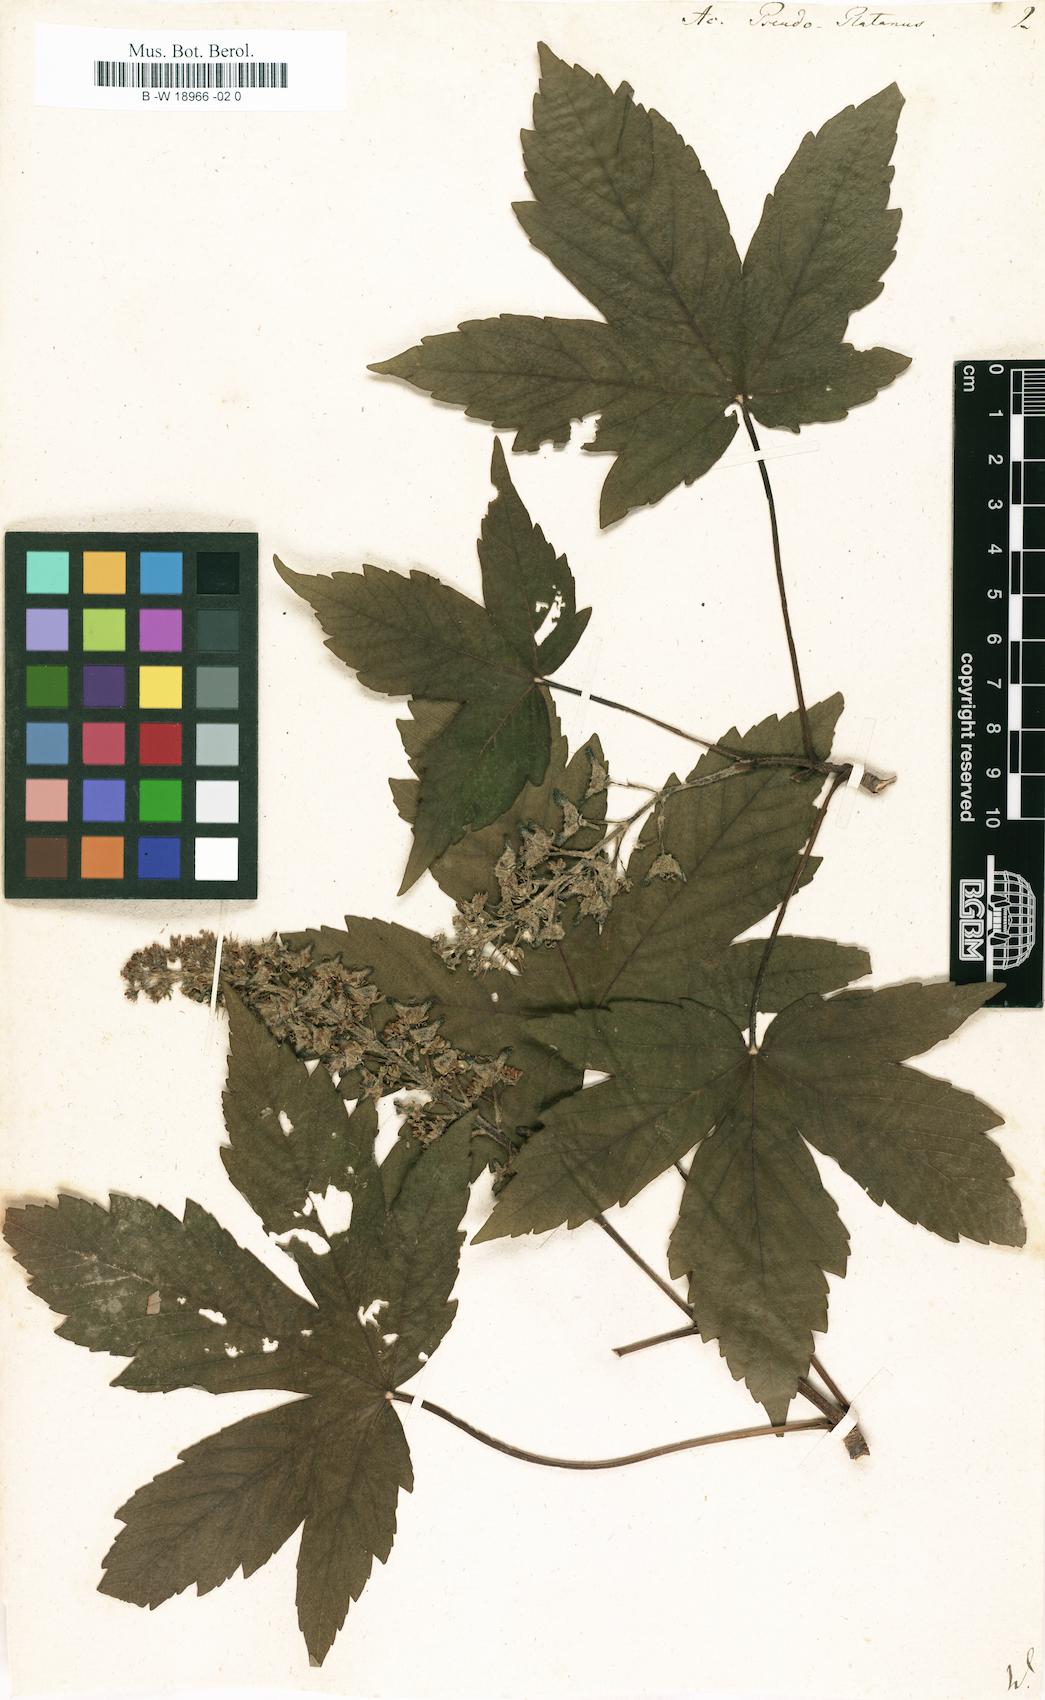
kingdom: Plantae
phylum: Tracheophyta
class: Magnoliopsida
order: Sapindales
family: Sapindaceae
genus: Acer
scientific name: Acer pseudoplatanus
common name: Sycamore
